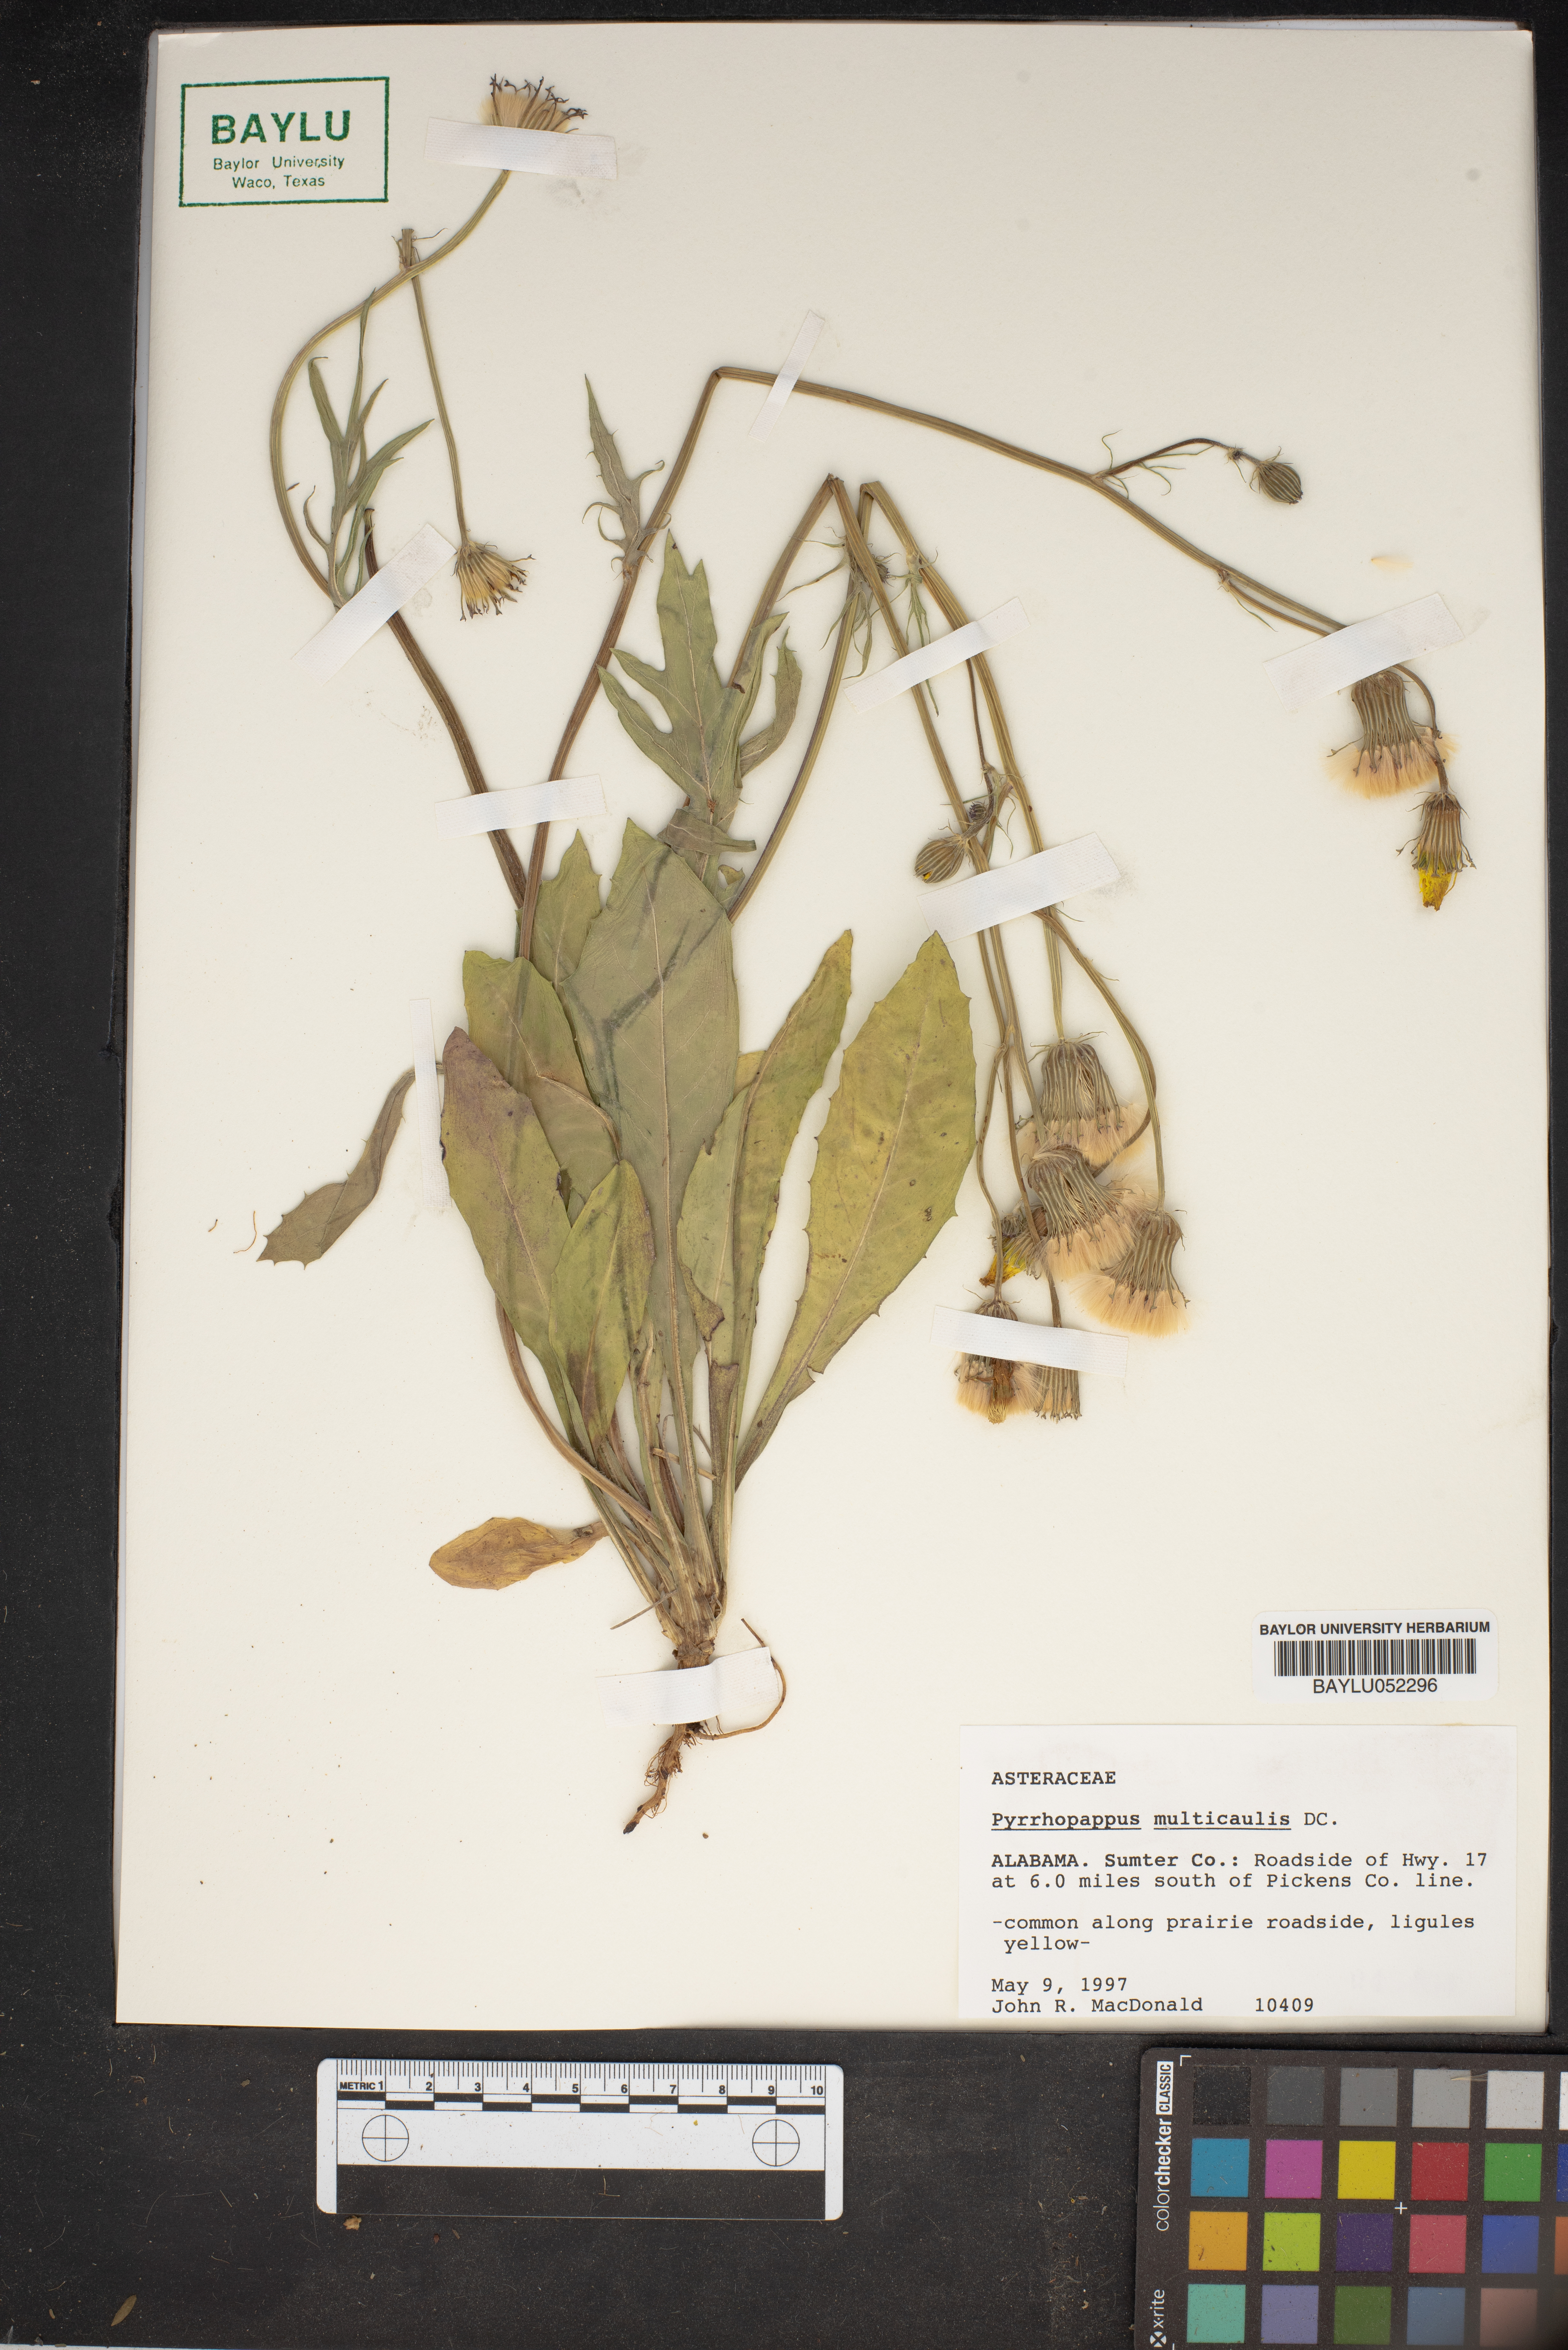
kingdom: Plantae
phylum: Tracheophyta
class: Magnoliopsida
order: Asterales
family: Asteraceae
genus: Pyrrhopappus
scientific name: Pyrrhopappus pauciflorus
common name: Texas false dandelion
